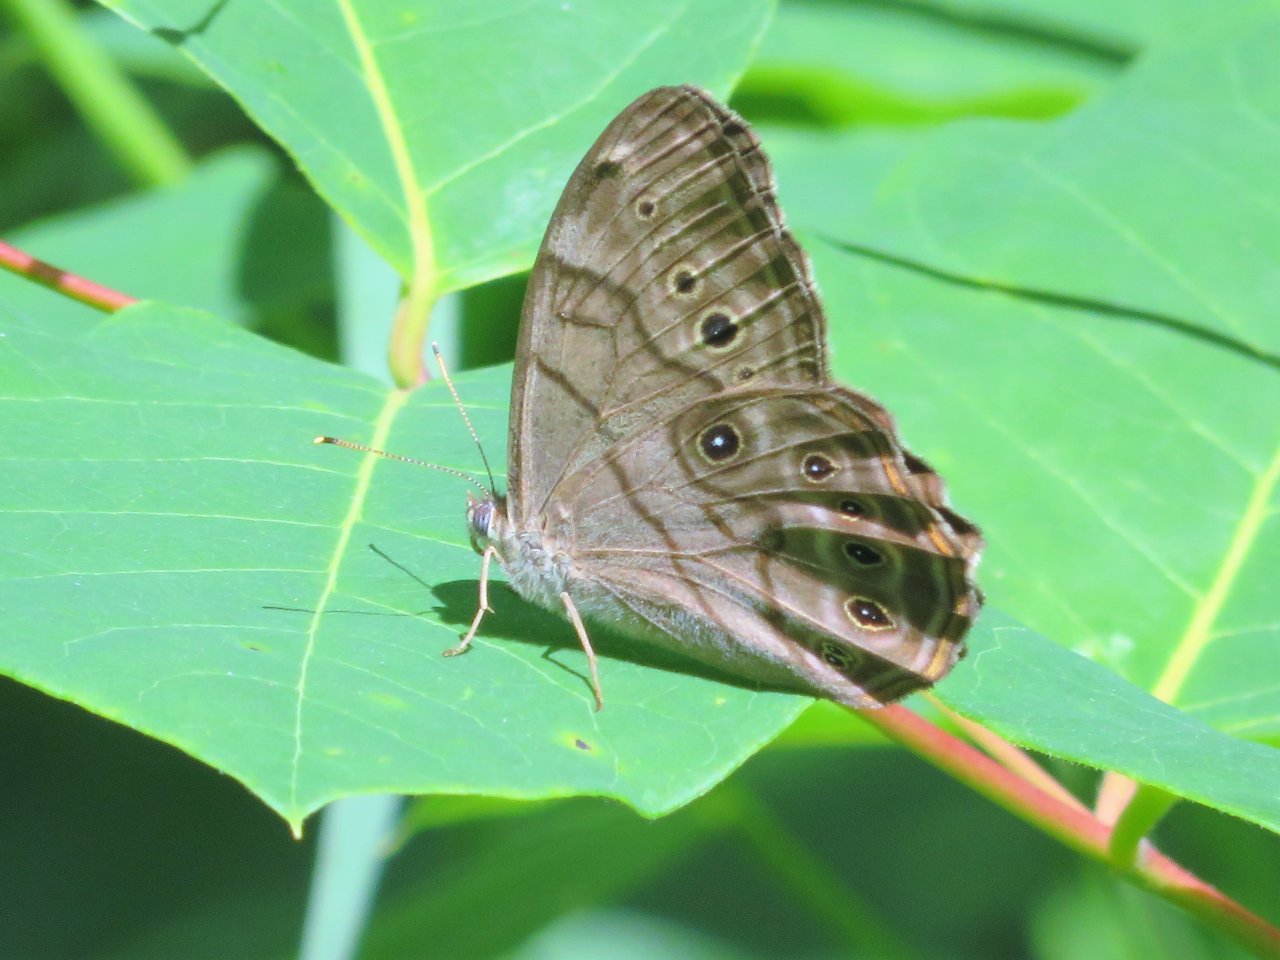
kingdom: Animalia
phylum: Arthropoda
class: Insecta
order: Lepidoptera
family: Nymphalidae
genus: Lethe
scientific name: Lethe anthedon
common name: Northern Pearly-Eye
